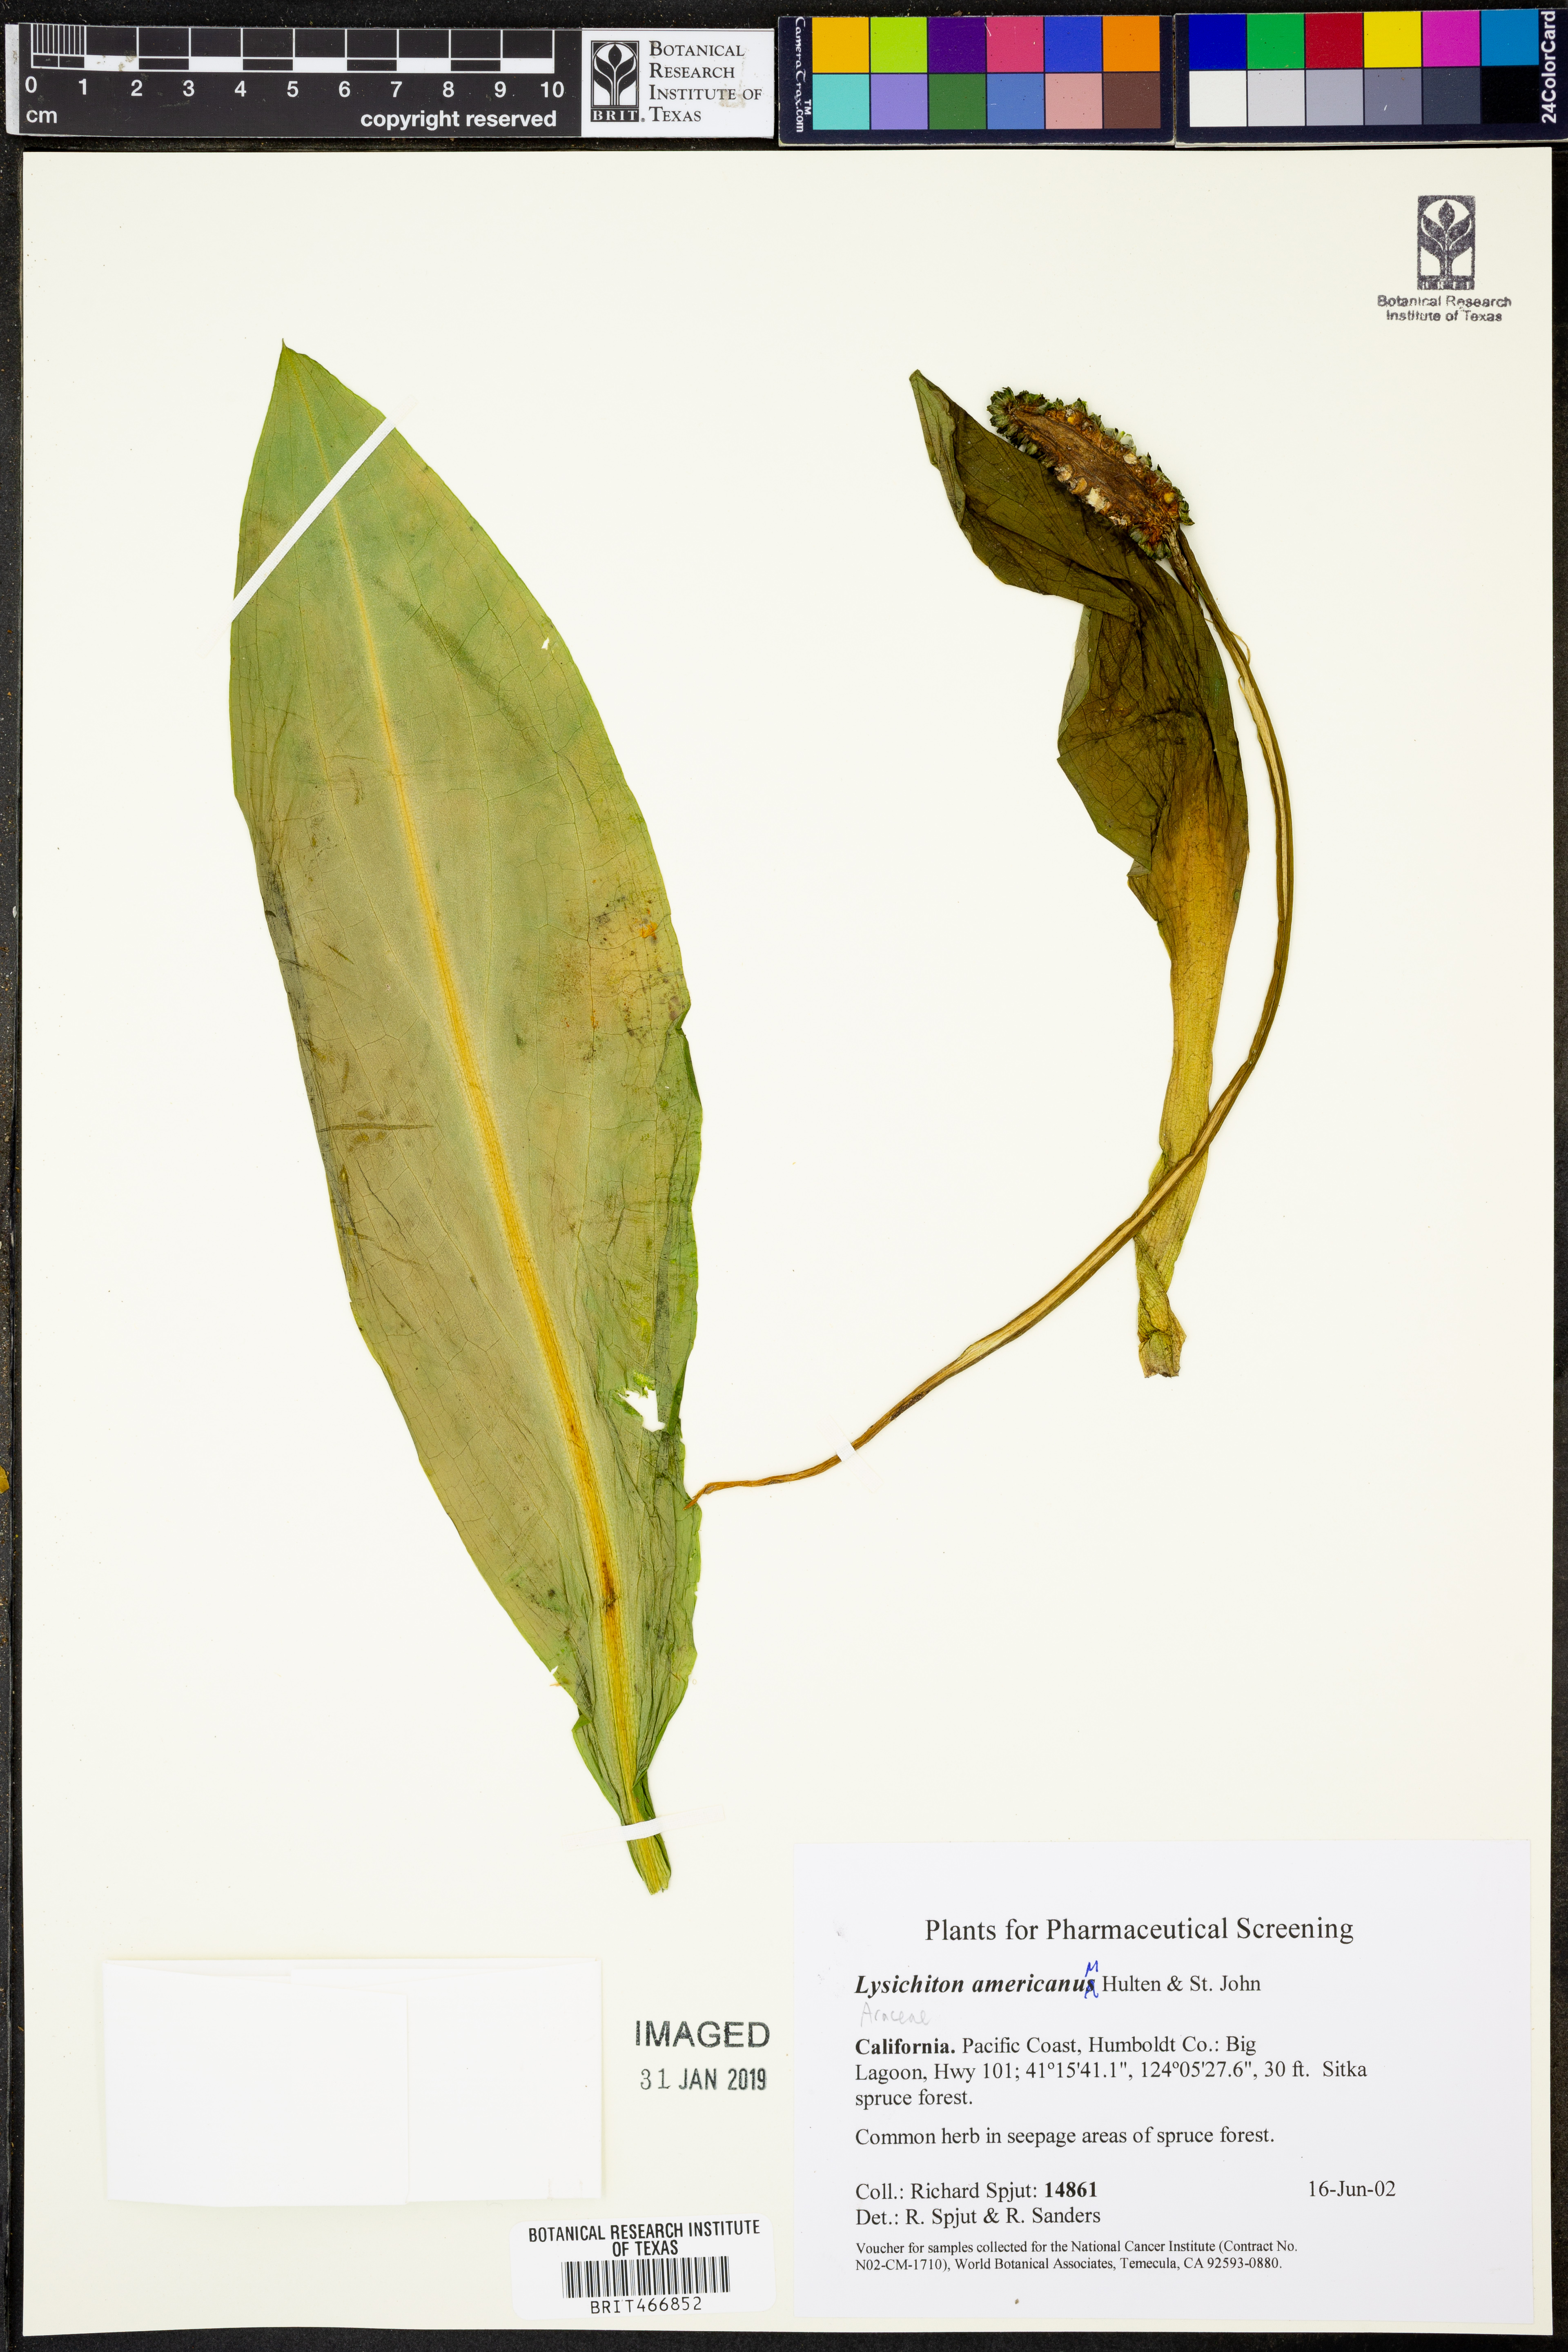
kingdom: Plantae
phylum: Tracheophyta
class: Liliopsida
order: Alismatales
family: Araceae
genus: Lysichiton
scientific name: Lysichiton americanus
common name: American skunk cabbage
